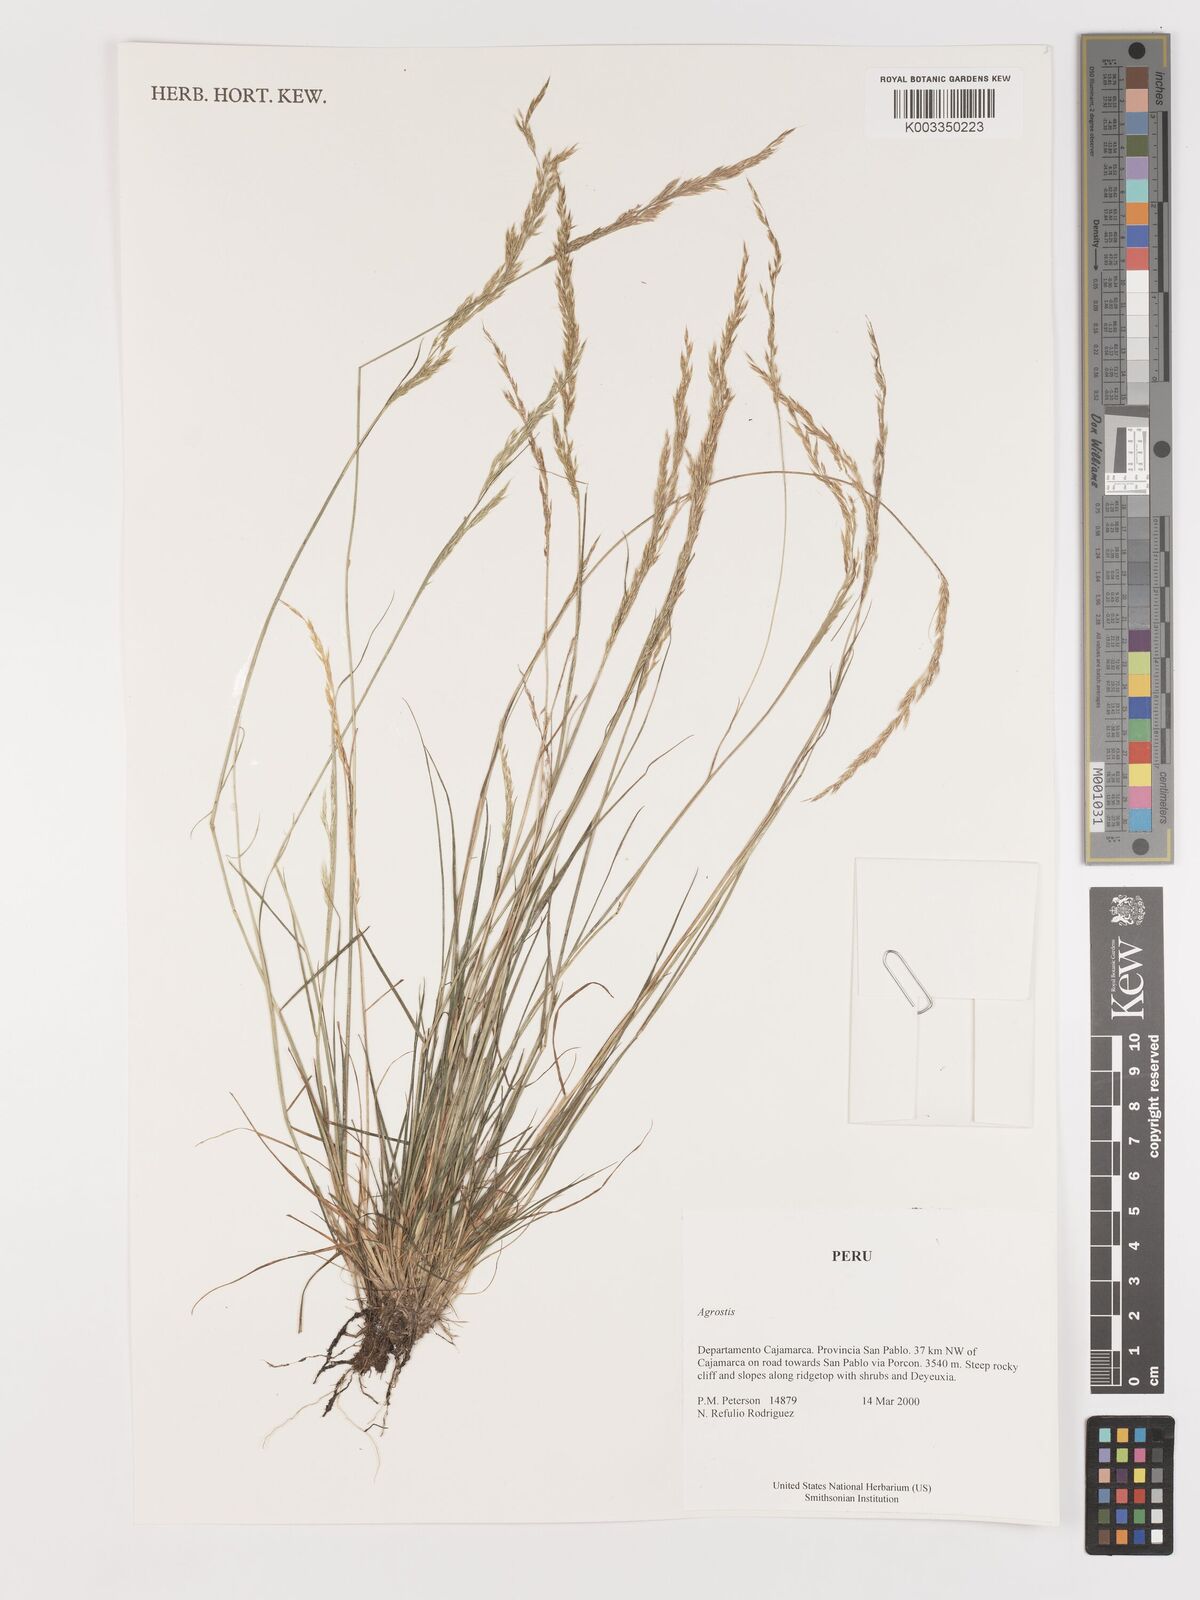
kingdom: Plantae
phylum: Tracheophyta
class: Liliopsida
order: Poales
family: Poaceae
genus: Agrostis
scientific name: Agrostis
